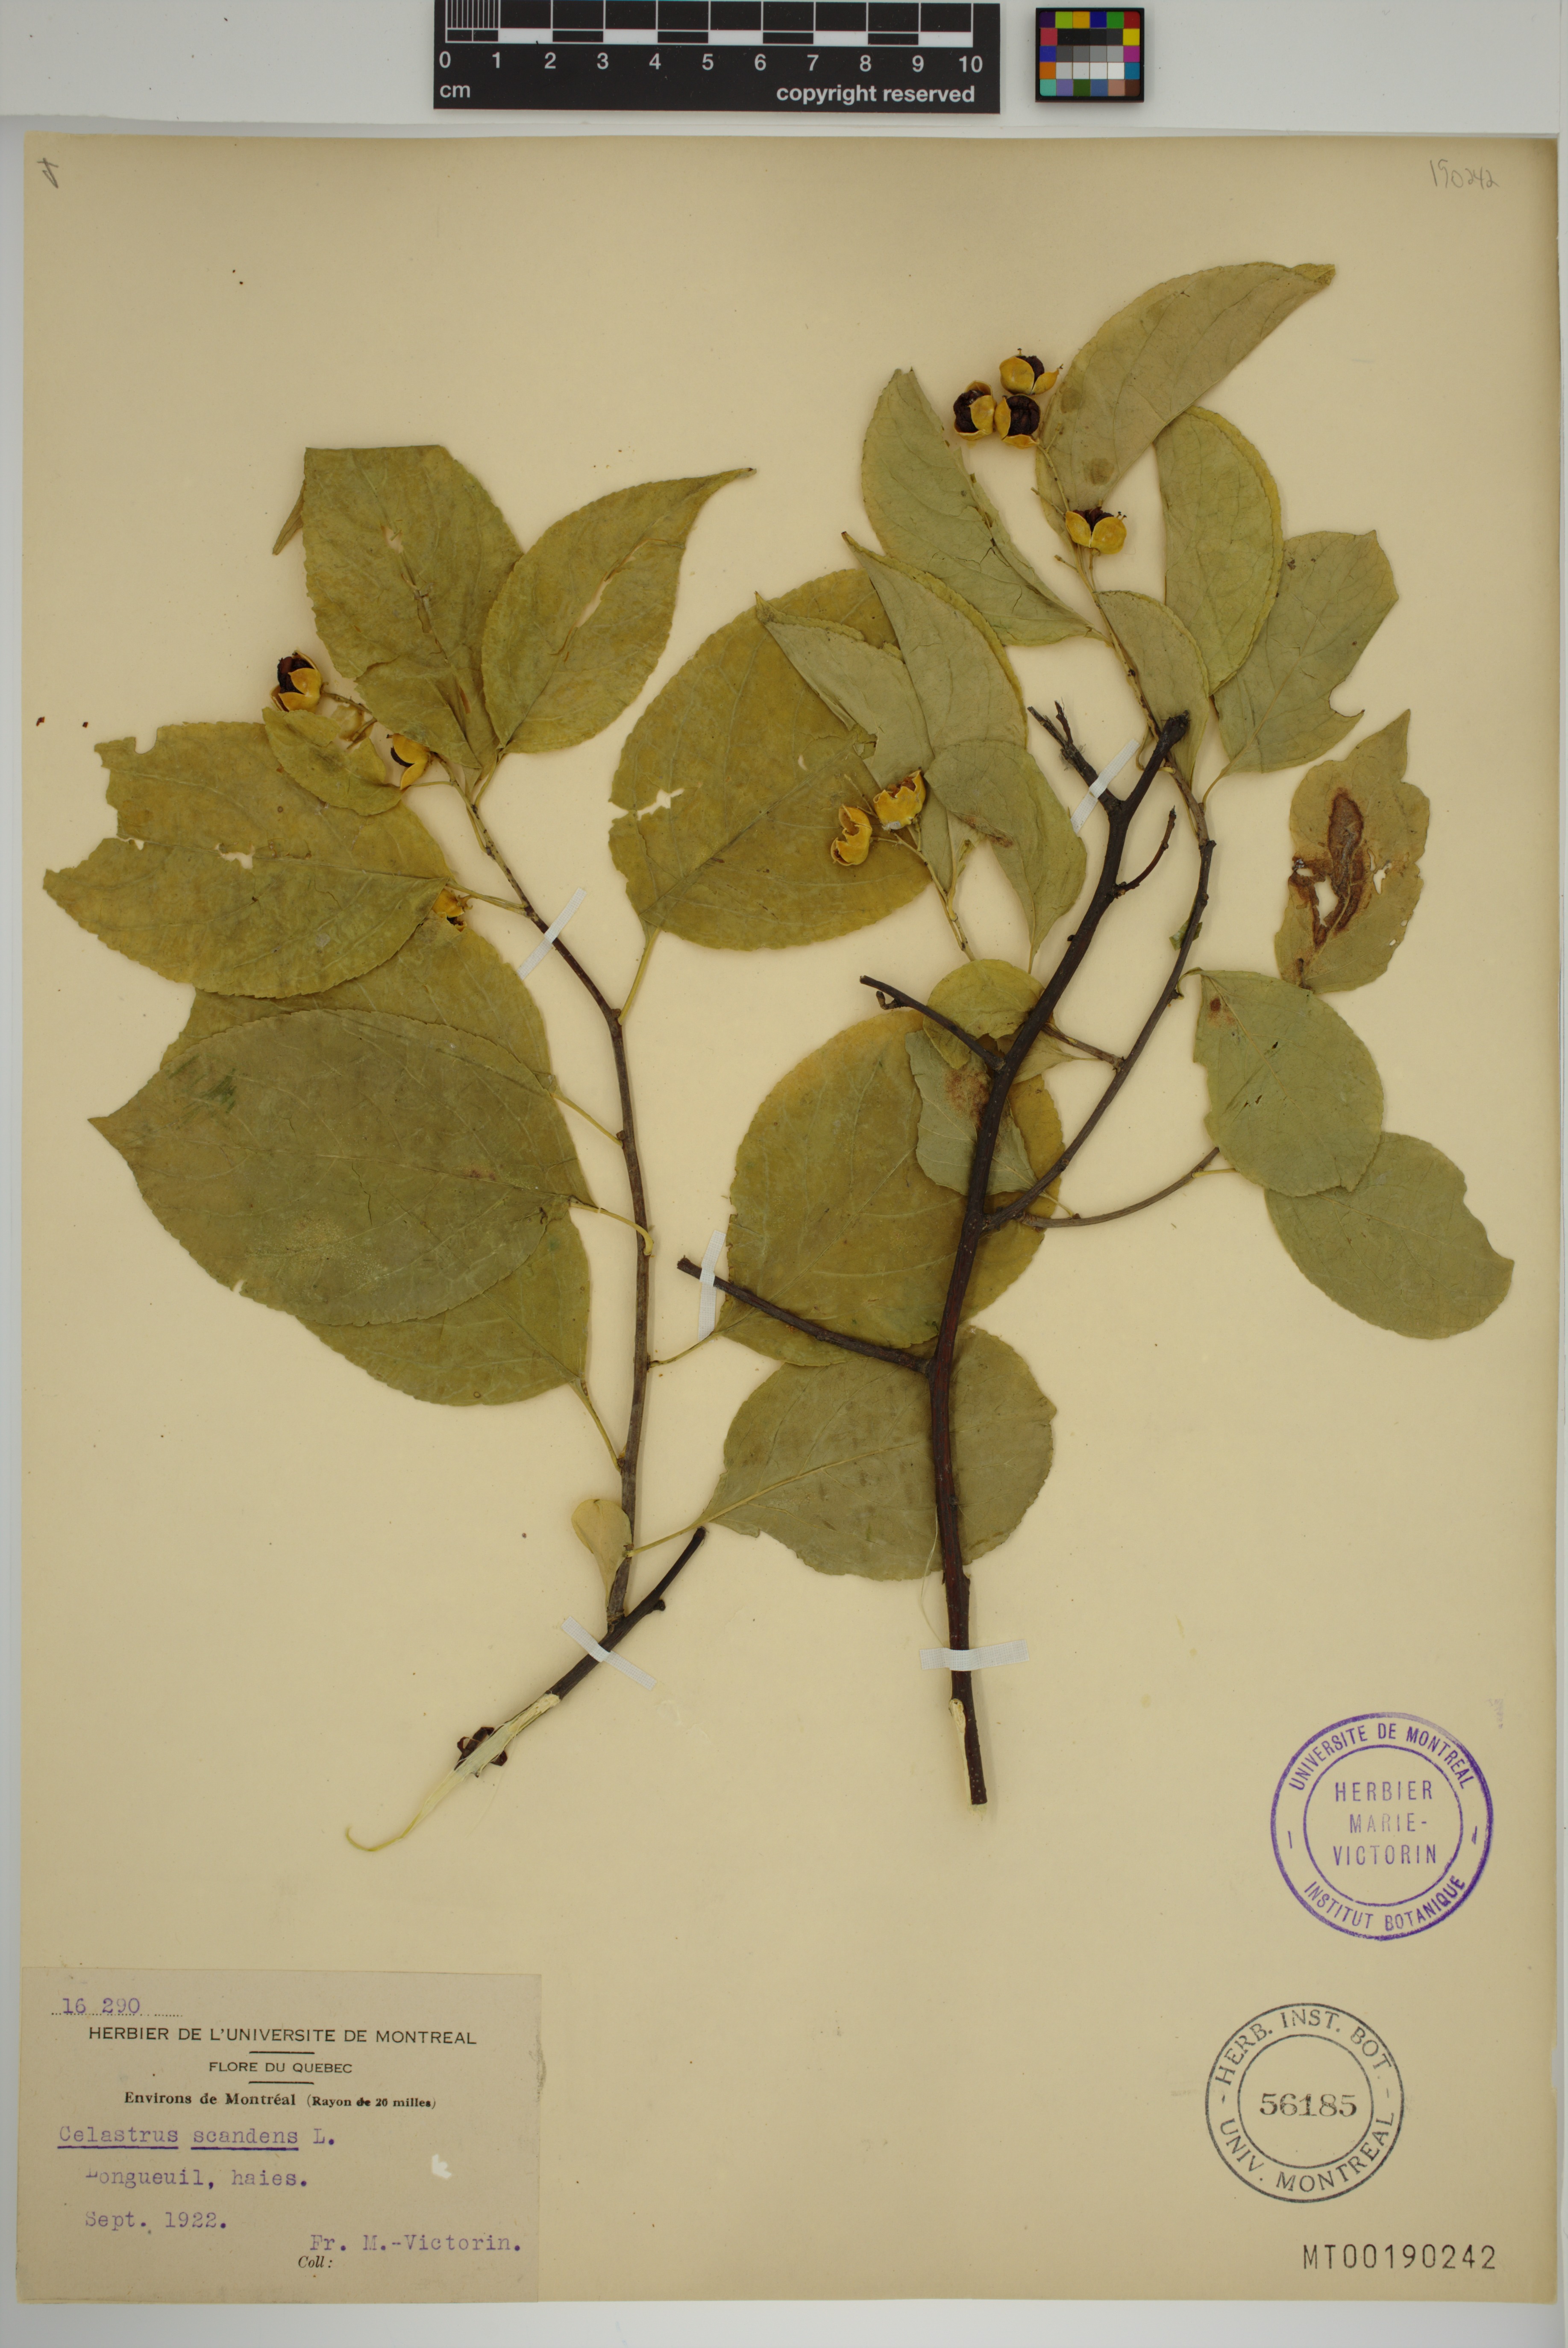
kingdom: Plantae
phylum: Tracheophyta
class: Magnoliopsida
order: Celastrales
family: Celastraceae
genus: Celastrus
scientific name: Celastrus scandens
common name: American bittersweet
